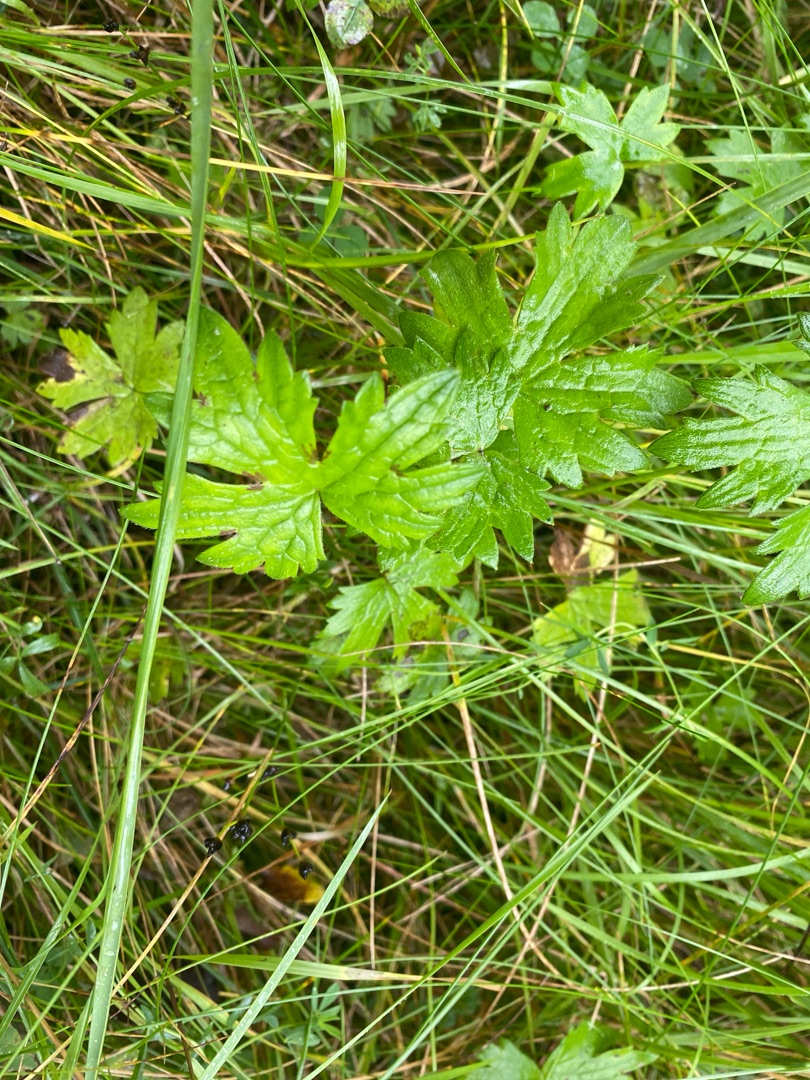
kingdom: Plantae
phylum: Tracheophyta
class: Magnoliopsida
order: Ranunculales
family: Ranunculaceae
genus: Ranunculus
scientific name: Ranunculus acris
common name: Bidende ranunkel
